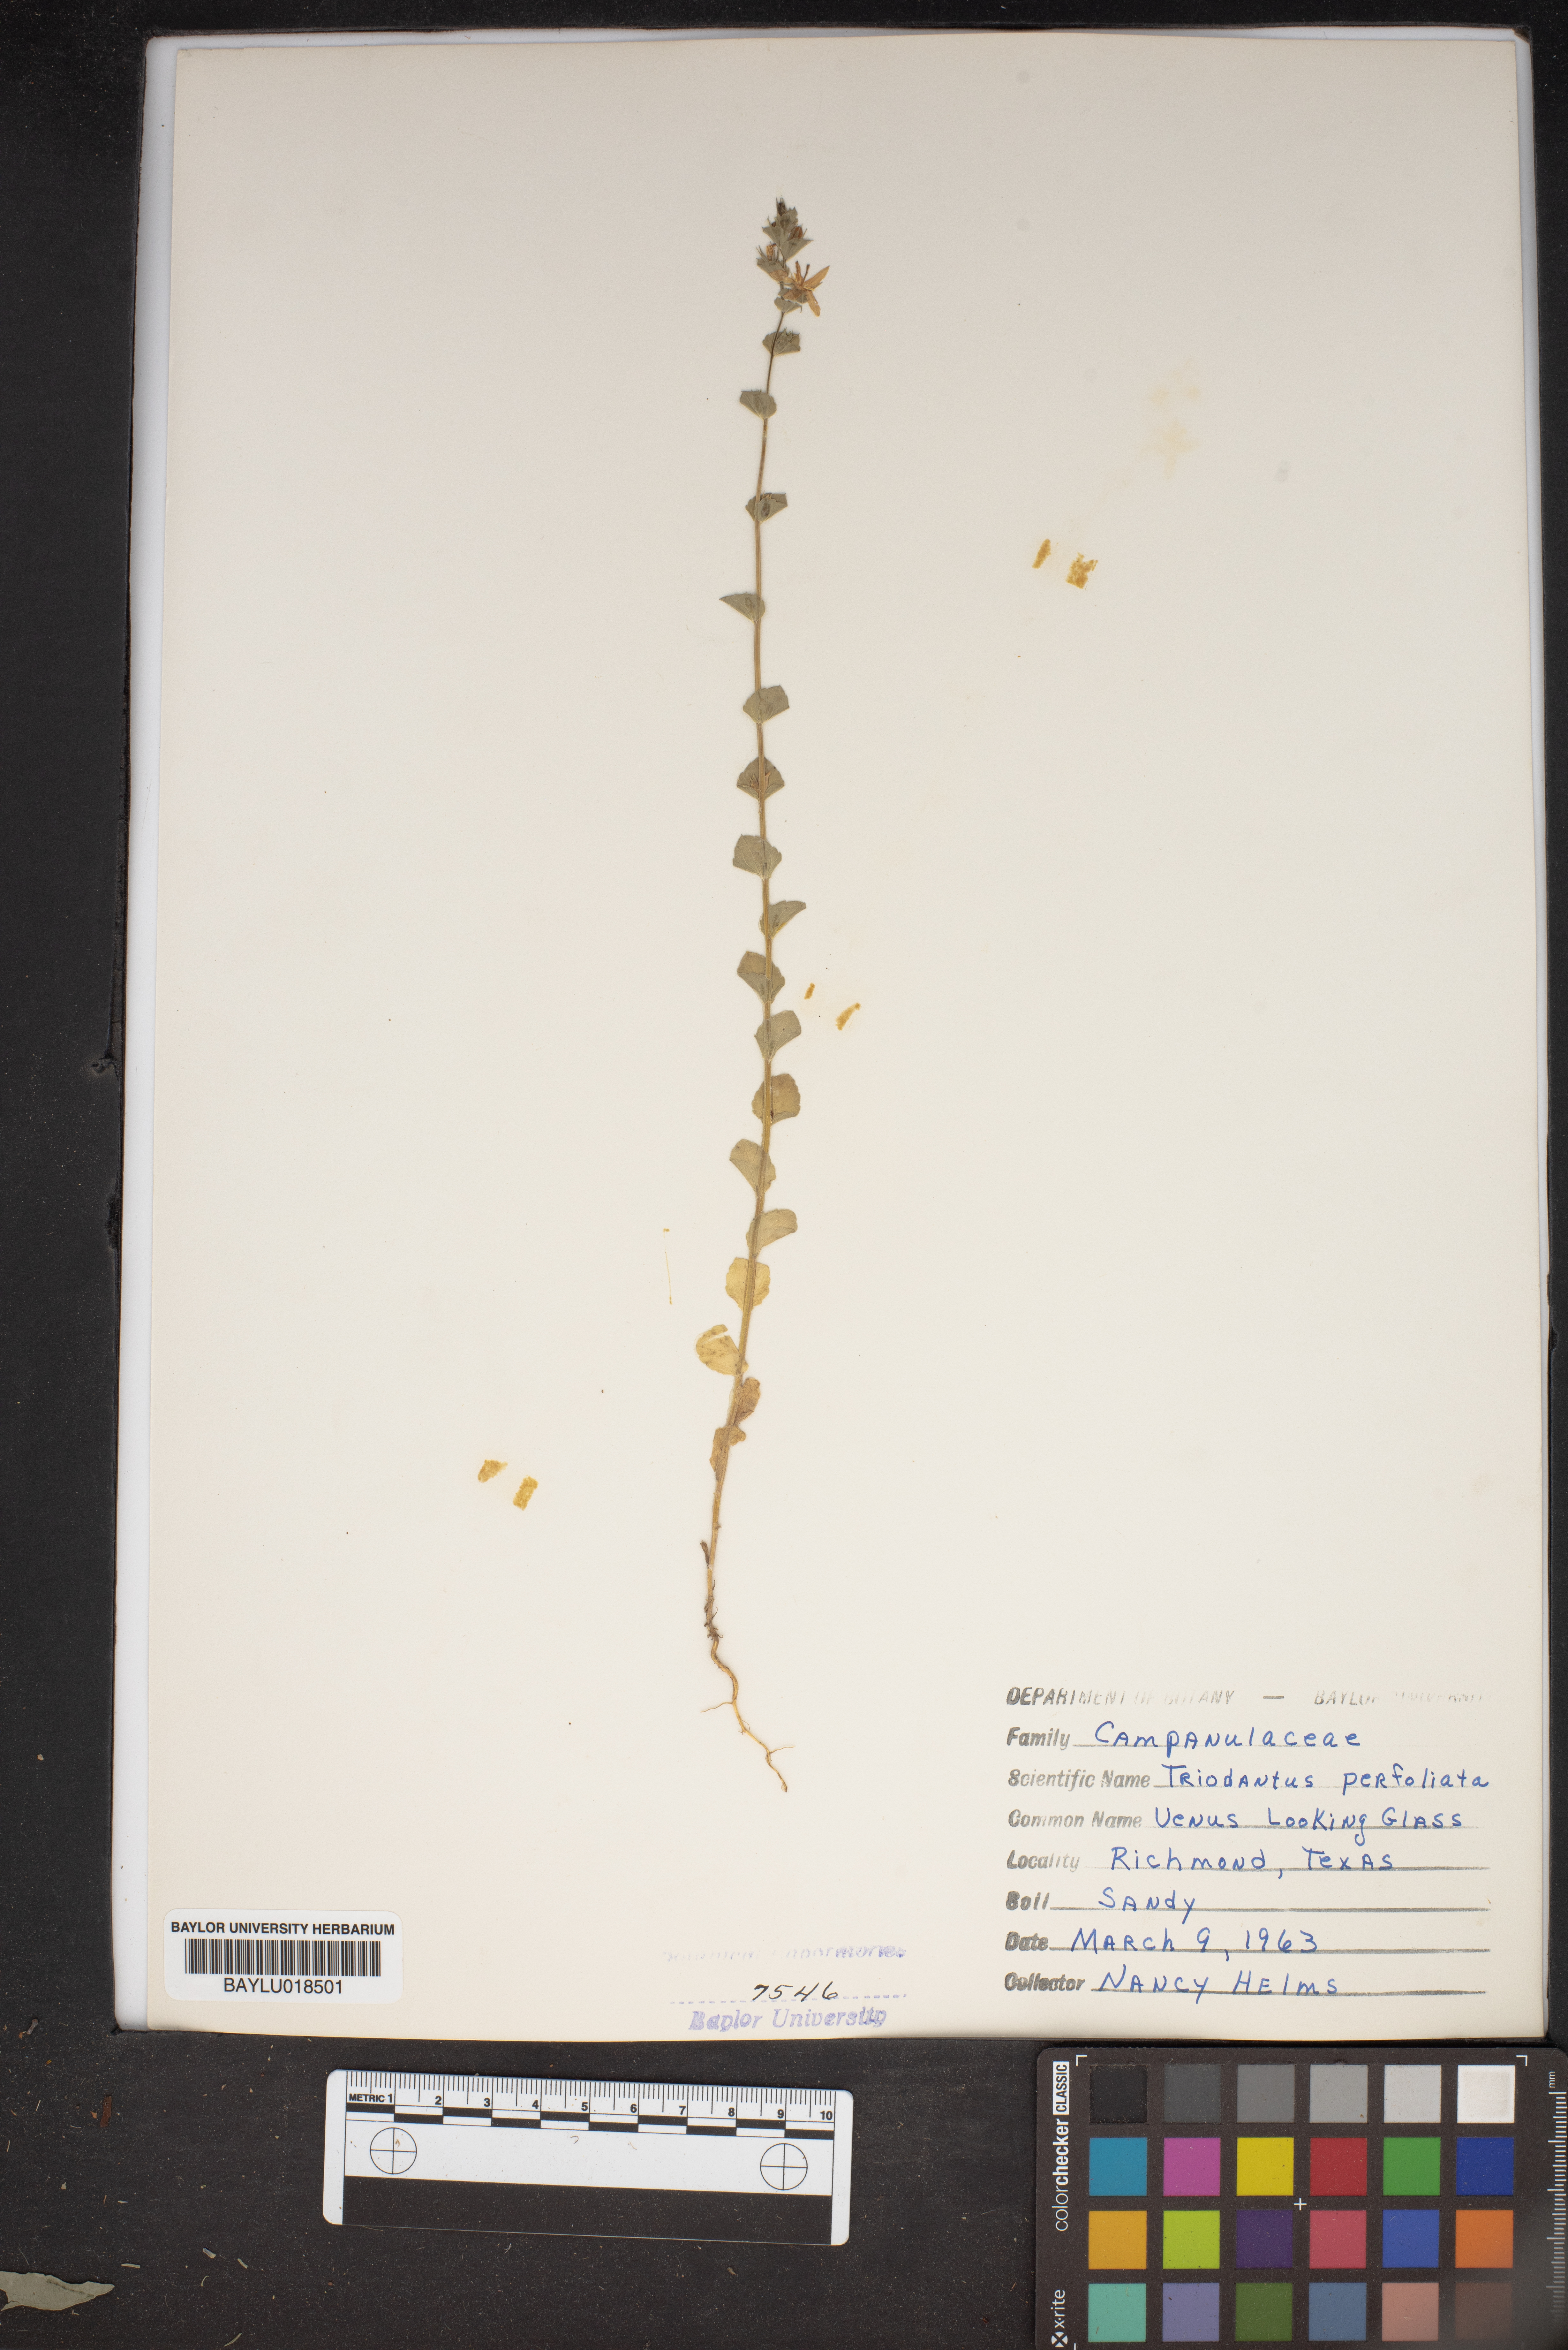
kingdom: Plantae
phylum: Tracheophyta
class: Magnoliopsida
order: Asterales
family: Campanulaceae
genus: Triodanis
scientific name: Triodanis perfoliata
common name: Clasping venus' looking-glass
